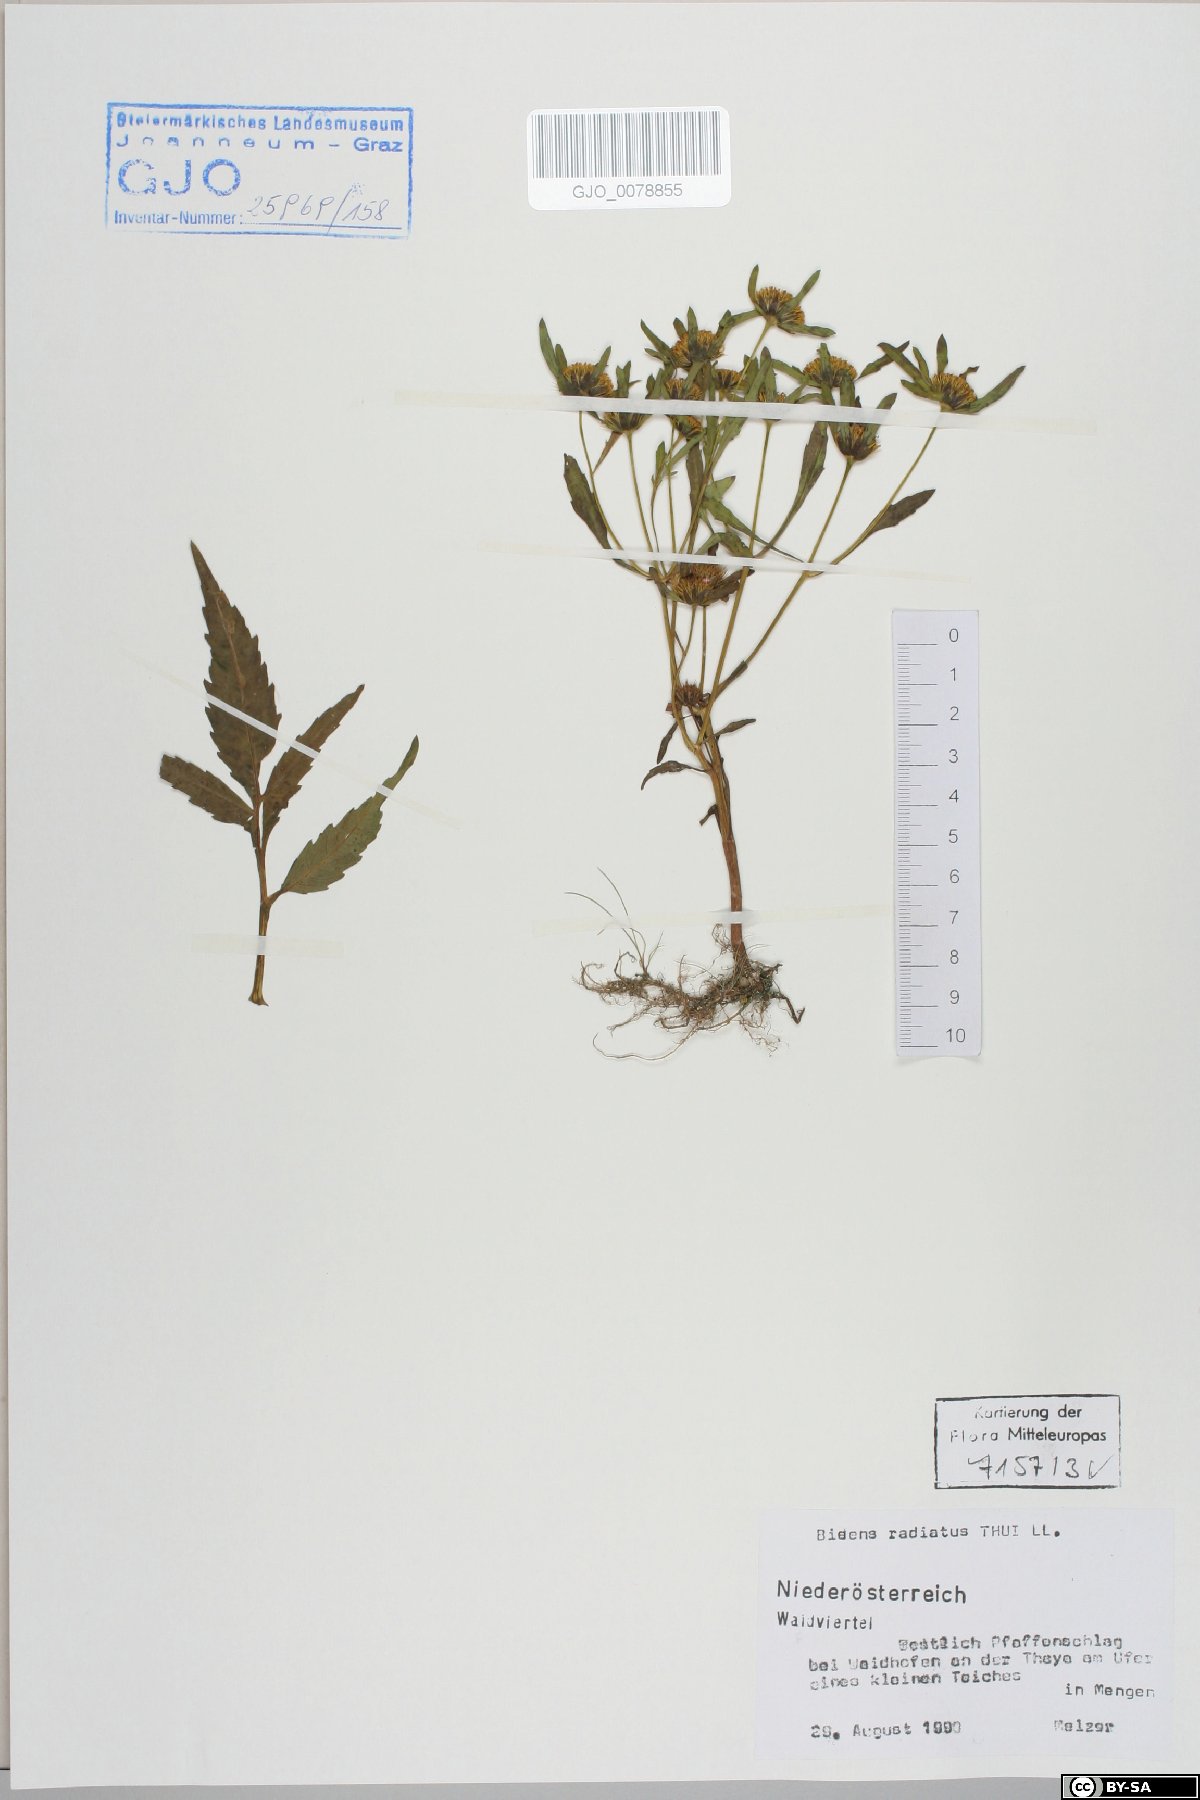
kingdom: Plantae
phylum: Tracheophyta
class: Magnoliopsida
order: Asterales
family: Asteraceae
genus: Bidens
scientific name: Bidens radiata
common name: Radiating bur-marigold
